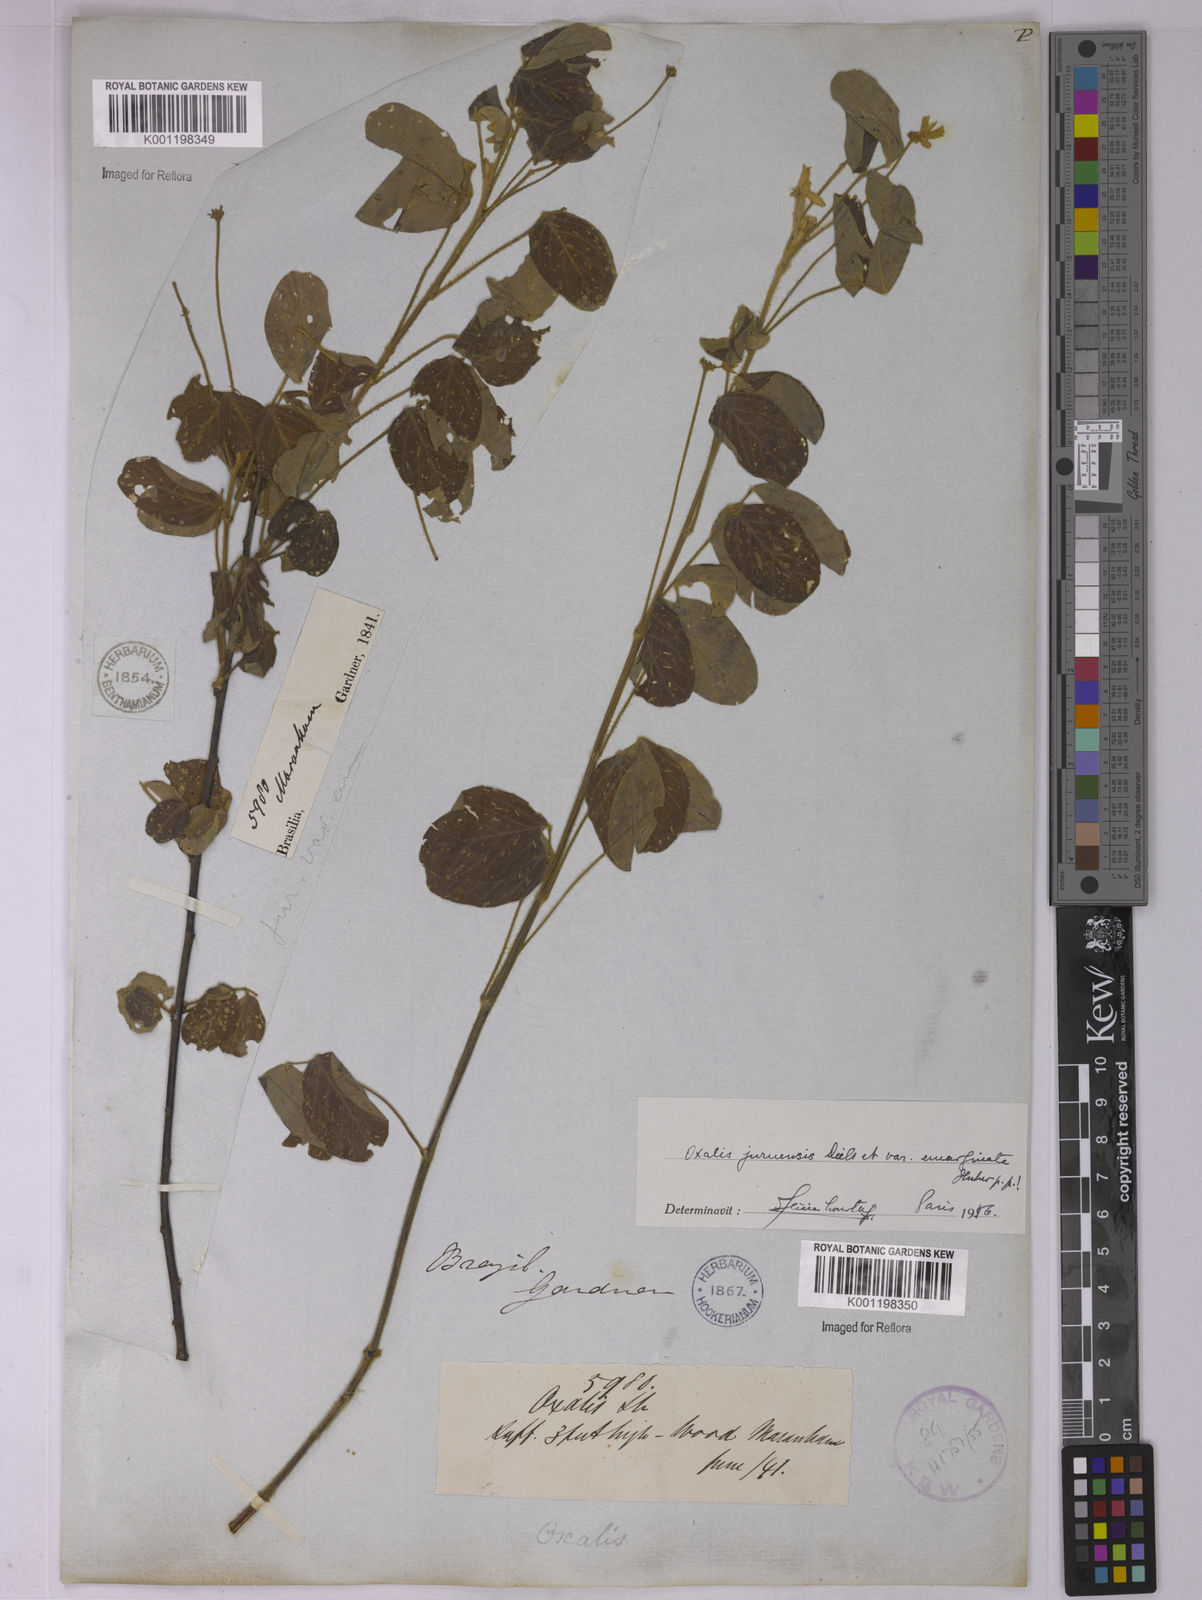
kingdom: Plantae
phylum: Tracheophyta
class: Magnoliopsida
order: Oxalidales
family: Oxalidaceae
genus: Oxalis
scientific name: Oxalis juruensis
